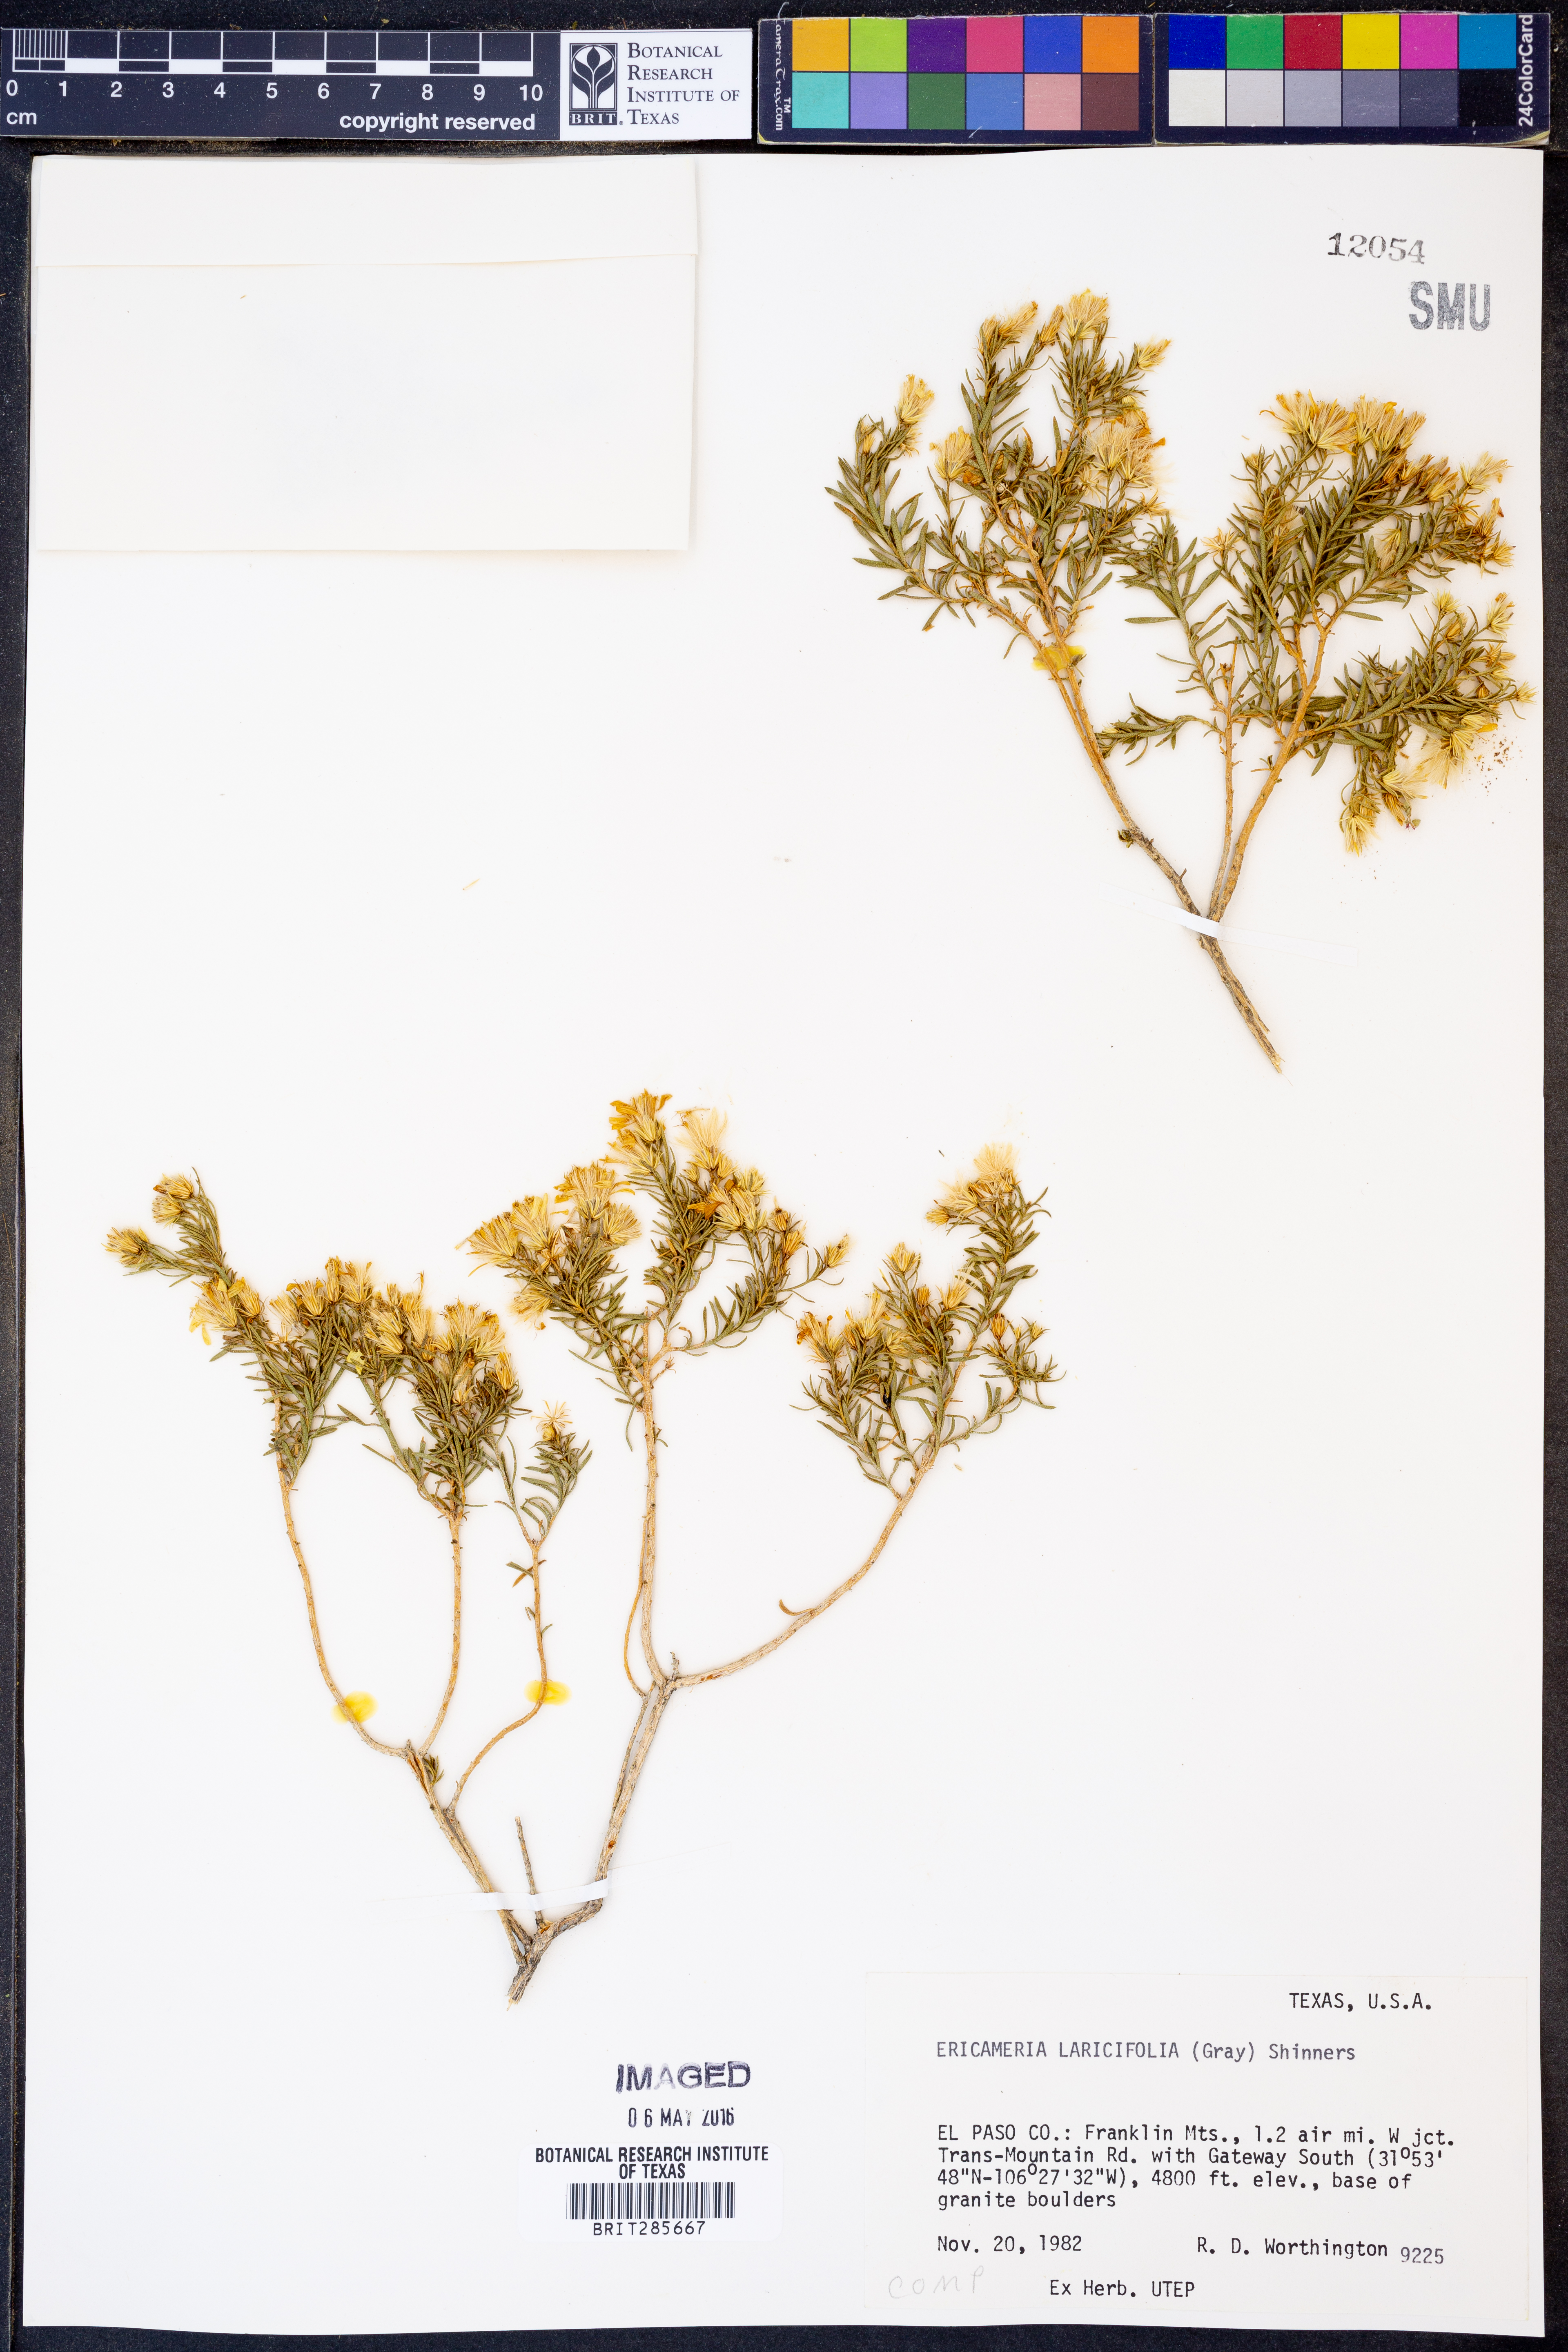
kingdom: Plantae
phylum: Tracheophyta
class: Magnoliopsida
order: Asterales
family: Asteraceae
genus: Ericameria
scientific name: Ericameria laricifolia
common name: Turpentine-bush
